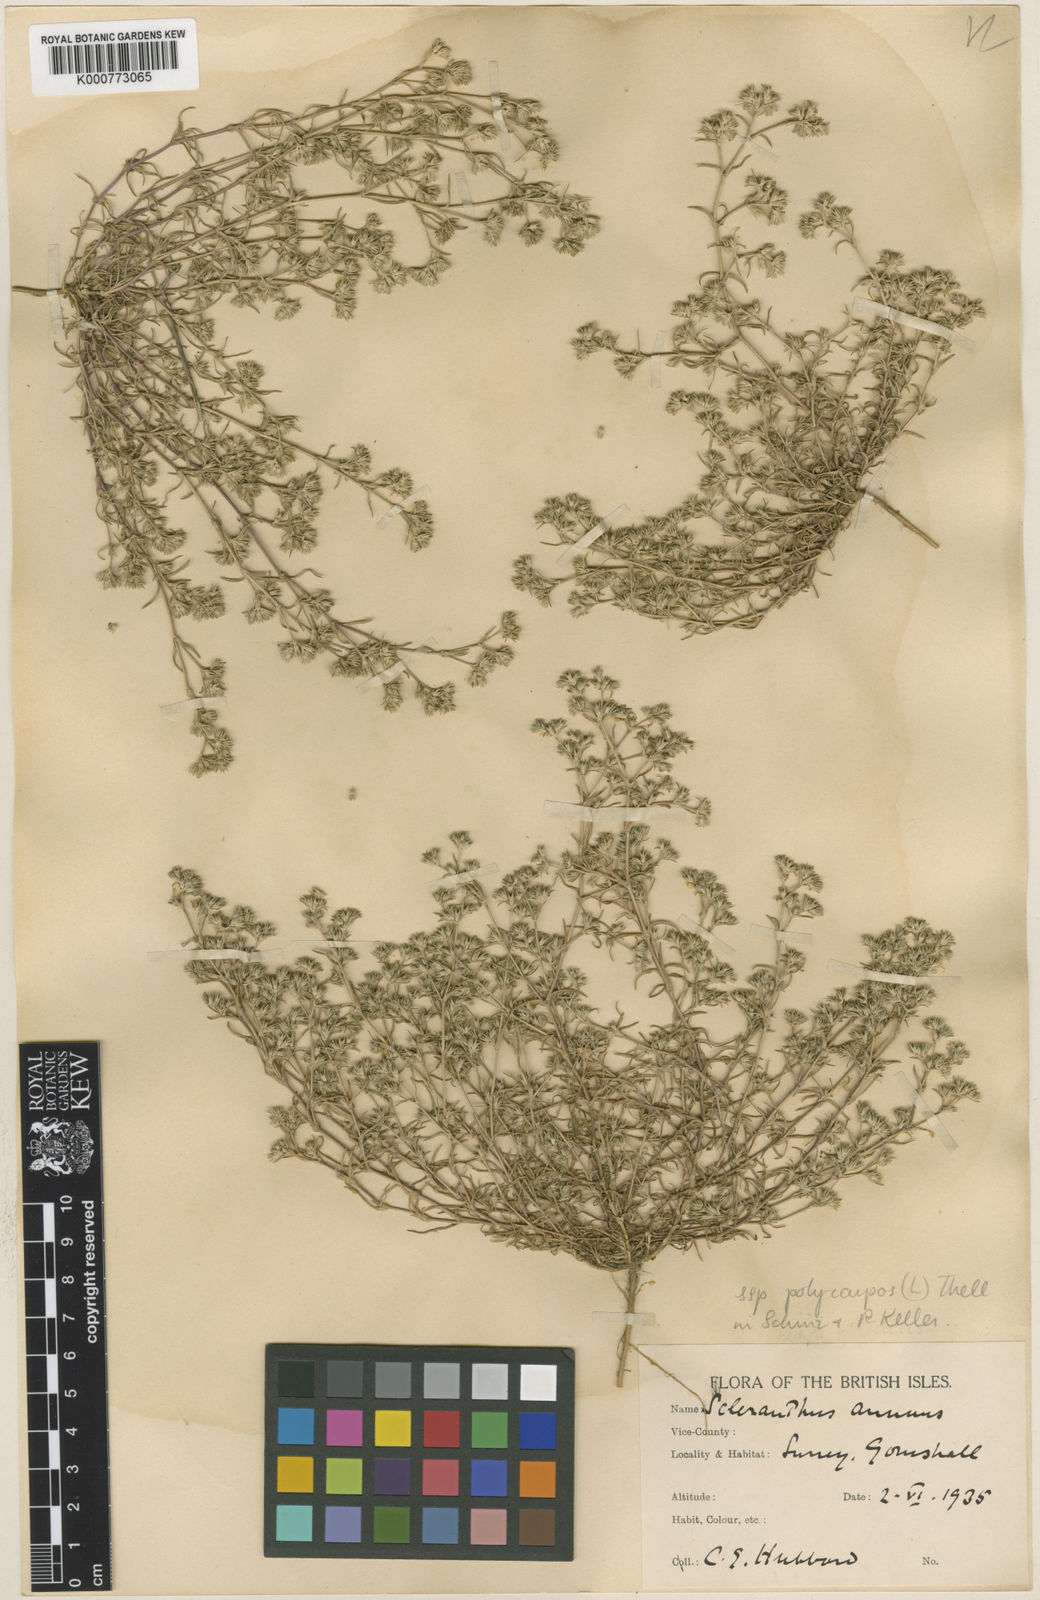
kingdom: Plantae
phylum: Tracheophyta
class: Magnoliopsida
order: Caryophyllales
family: Caryophyllaceae
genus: Scleranthus
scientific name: Scleranthus annuus
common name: Annual knawel
